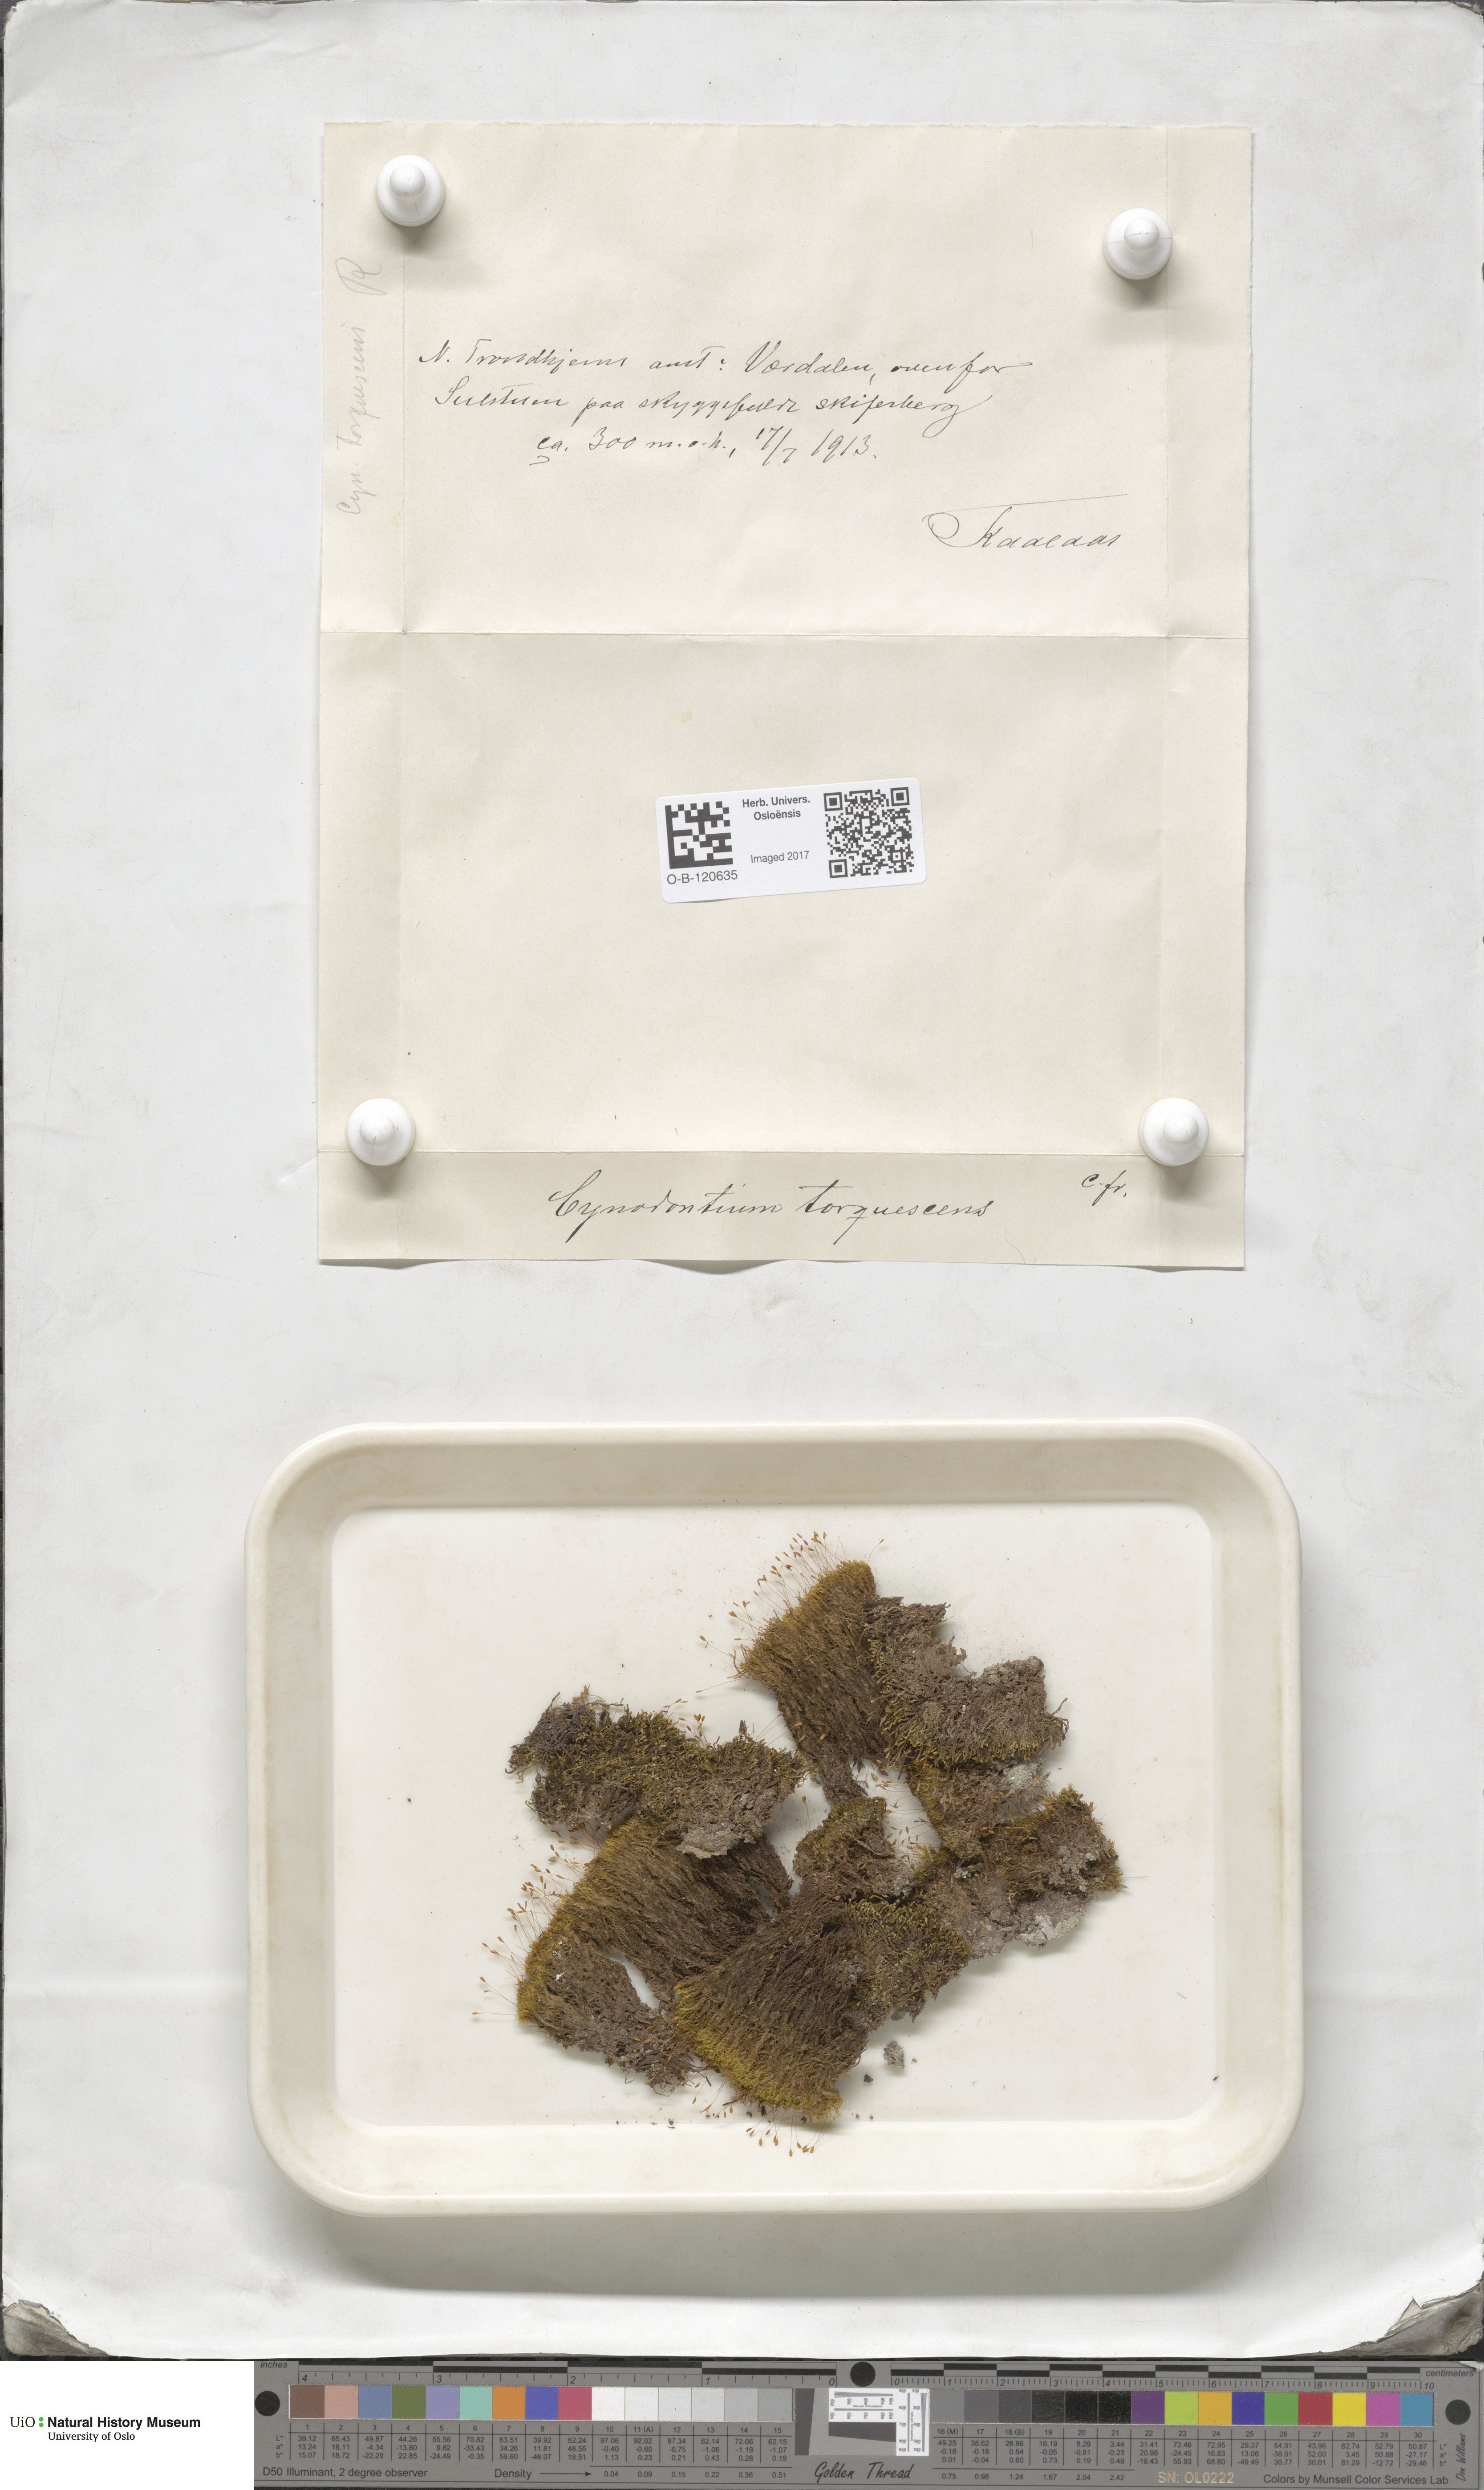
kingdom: Plantae
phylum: Bryophyta
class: Bryopsida
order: Dicranales
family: Rhabdoweisiaceae
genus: Cynodontium
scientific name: Cynodontium tenellum
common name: Delicate dogtooth moss
